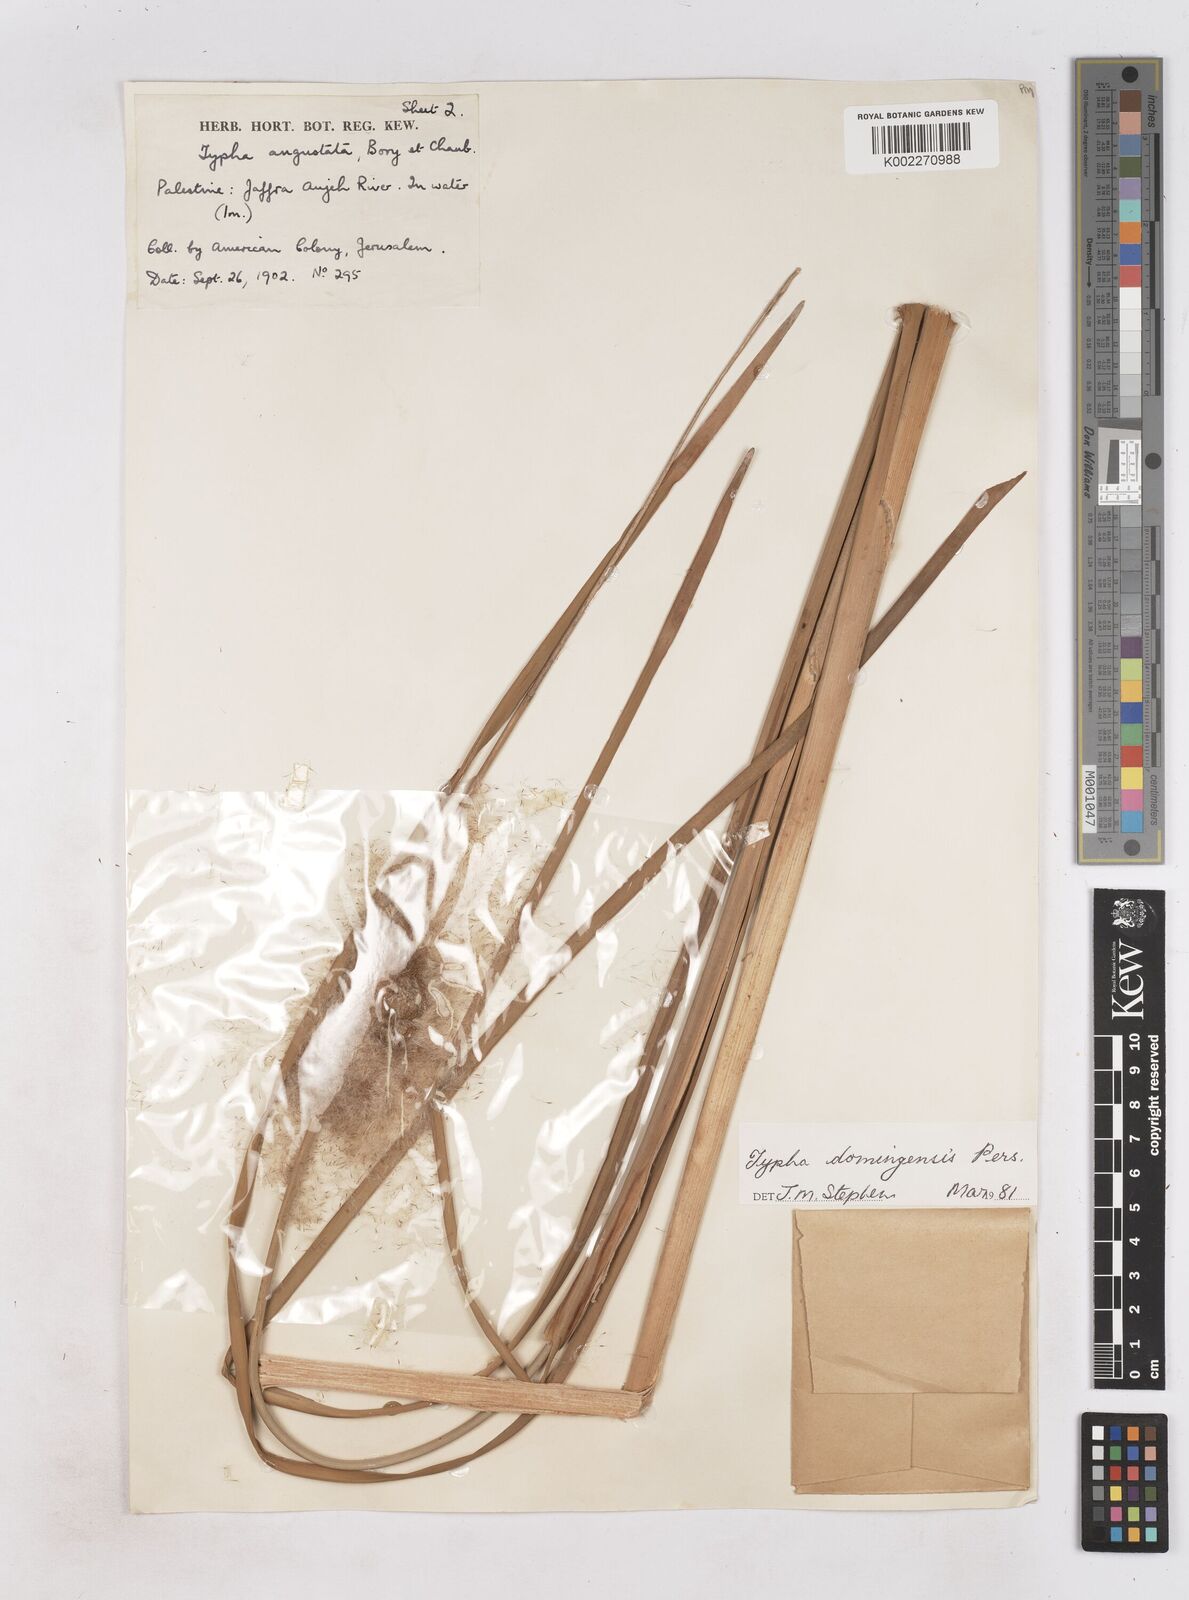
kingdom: Plantae
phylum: Tracheophyta
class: Liliopsida
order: Poales
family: Typhaceae
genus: Typha
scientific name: Typha domingensis
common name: Southern cattail
